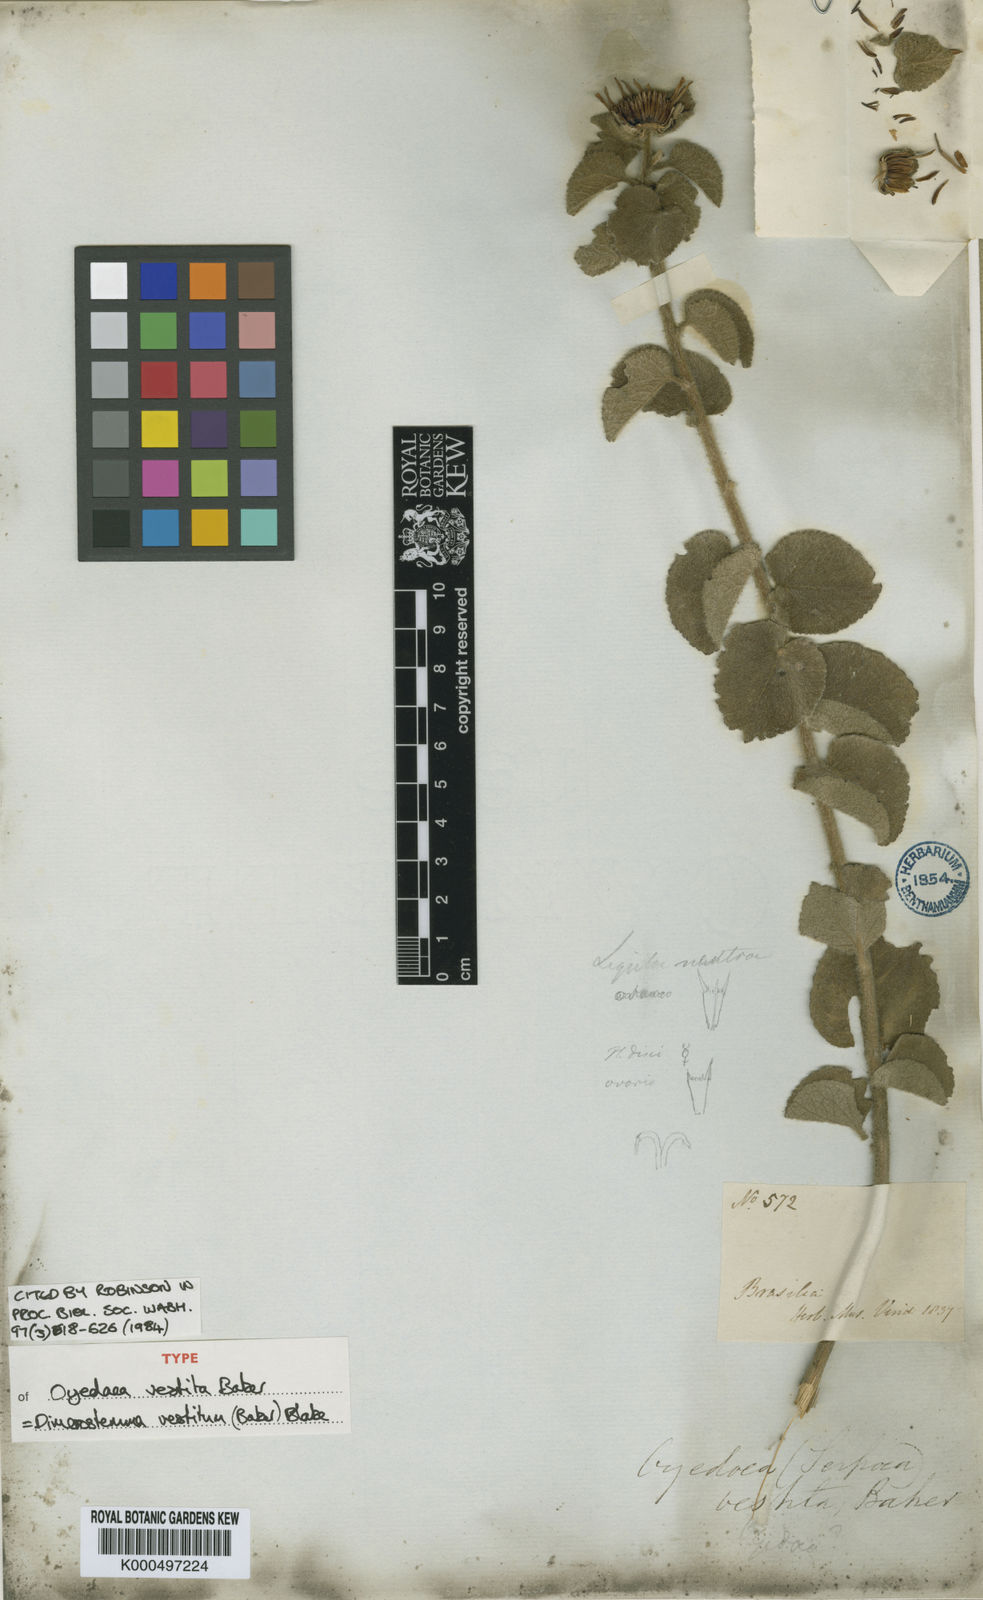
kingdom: Plantae
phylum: Tracheophyta
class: Magnoliopsida
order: Asterales
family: Asteraceae
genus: Dimerostemma
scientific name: Dimerostemma vestitum
